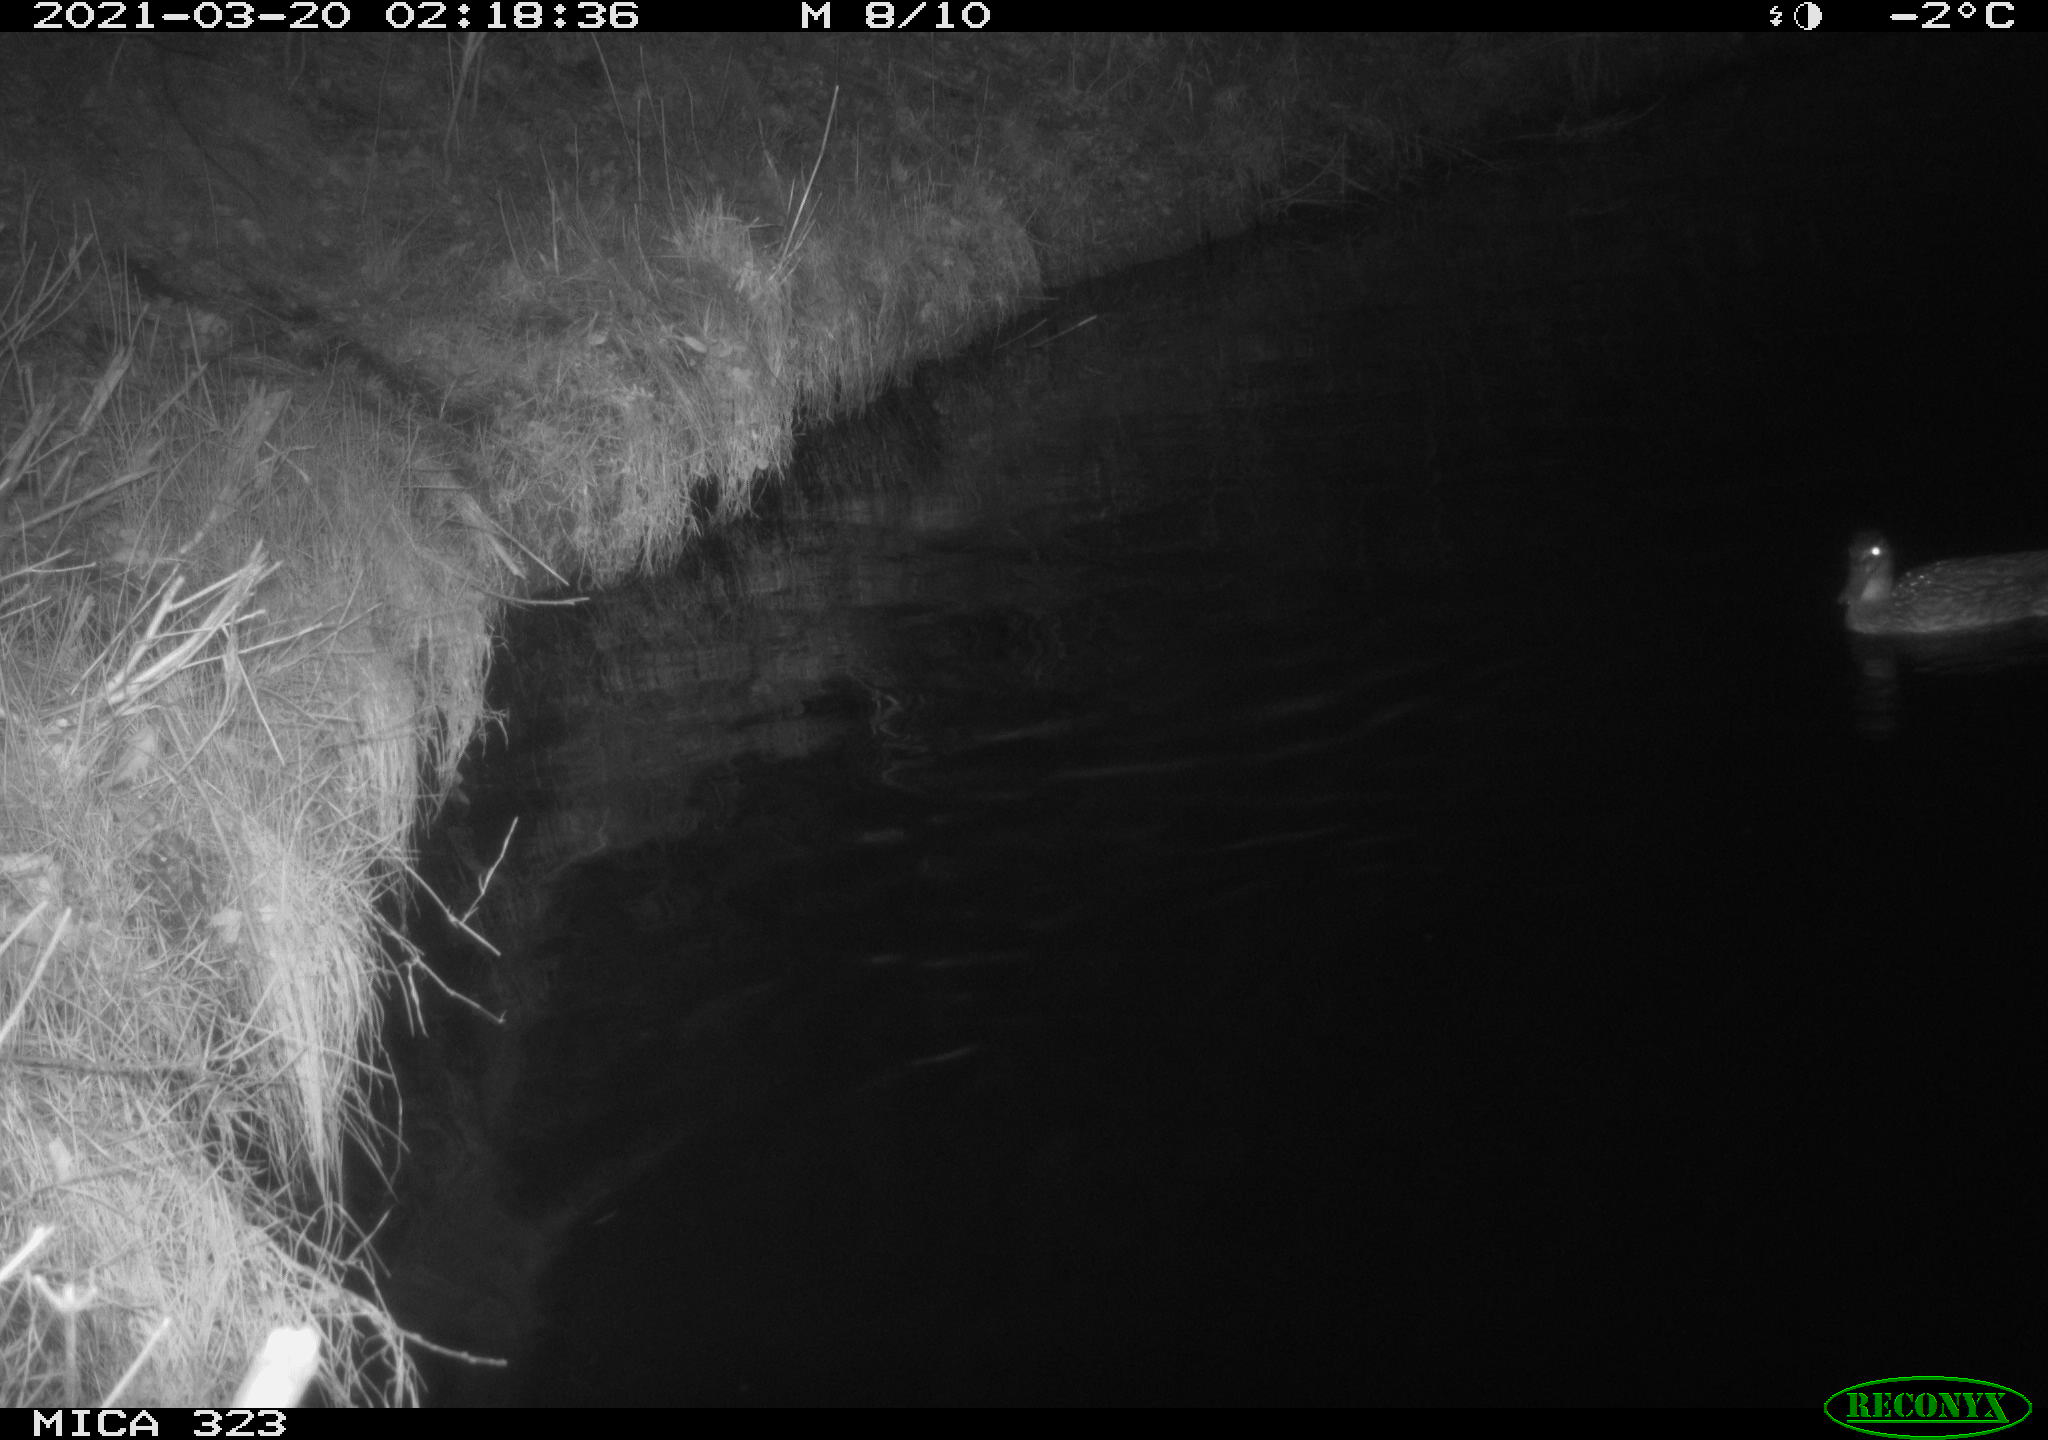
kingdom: Animalia
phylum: Chordata
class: Aves
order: Anseriformes
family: Anatidae
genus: Anas
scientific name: Anas platyrhynchos
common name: Mallard
